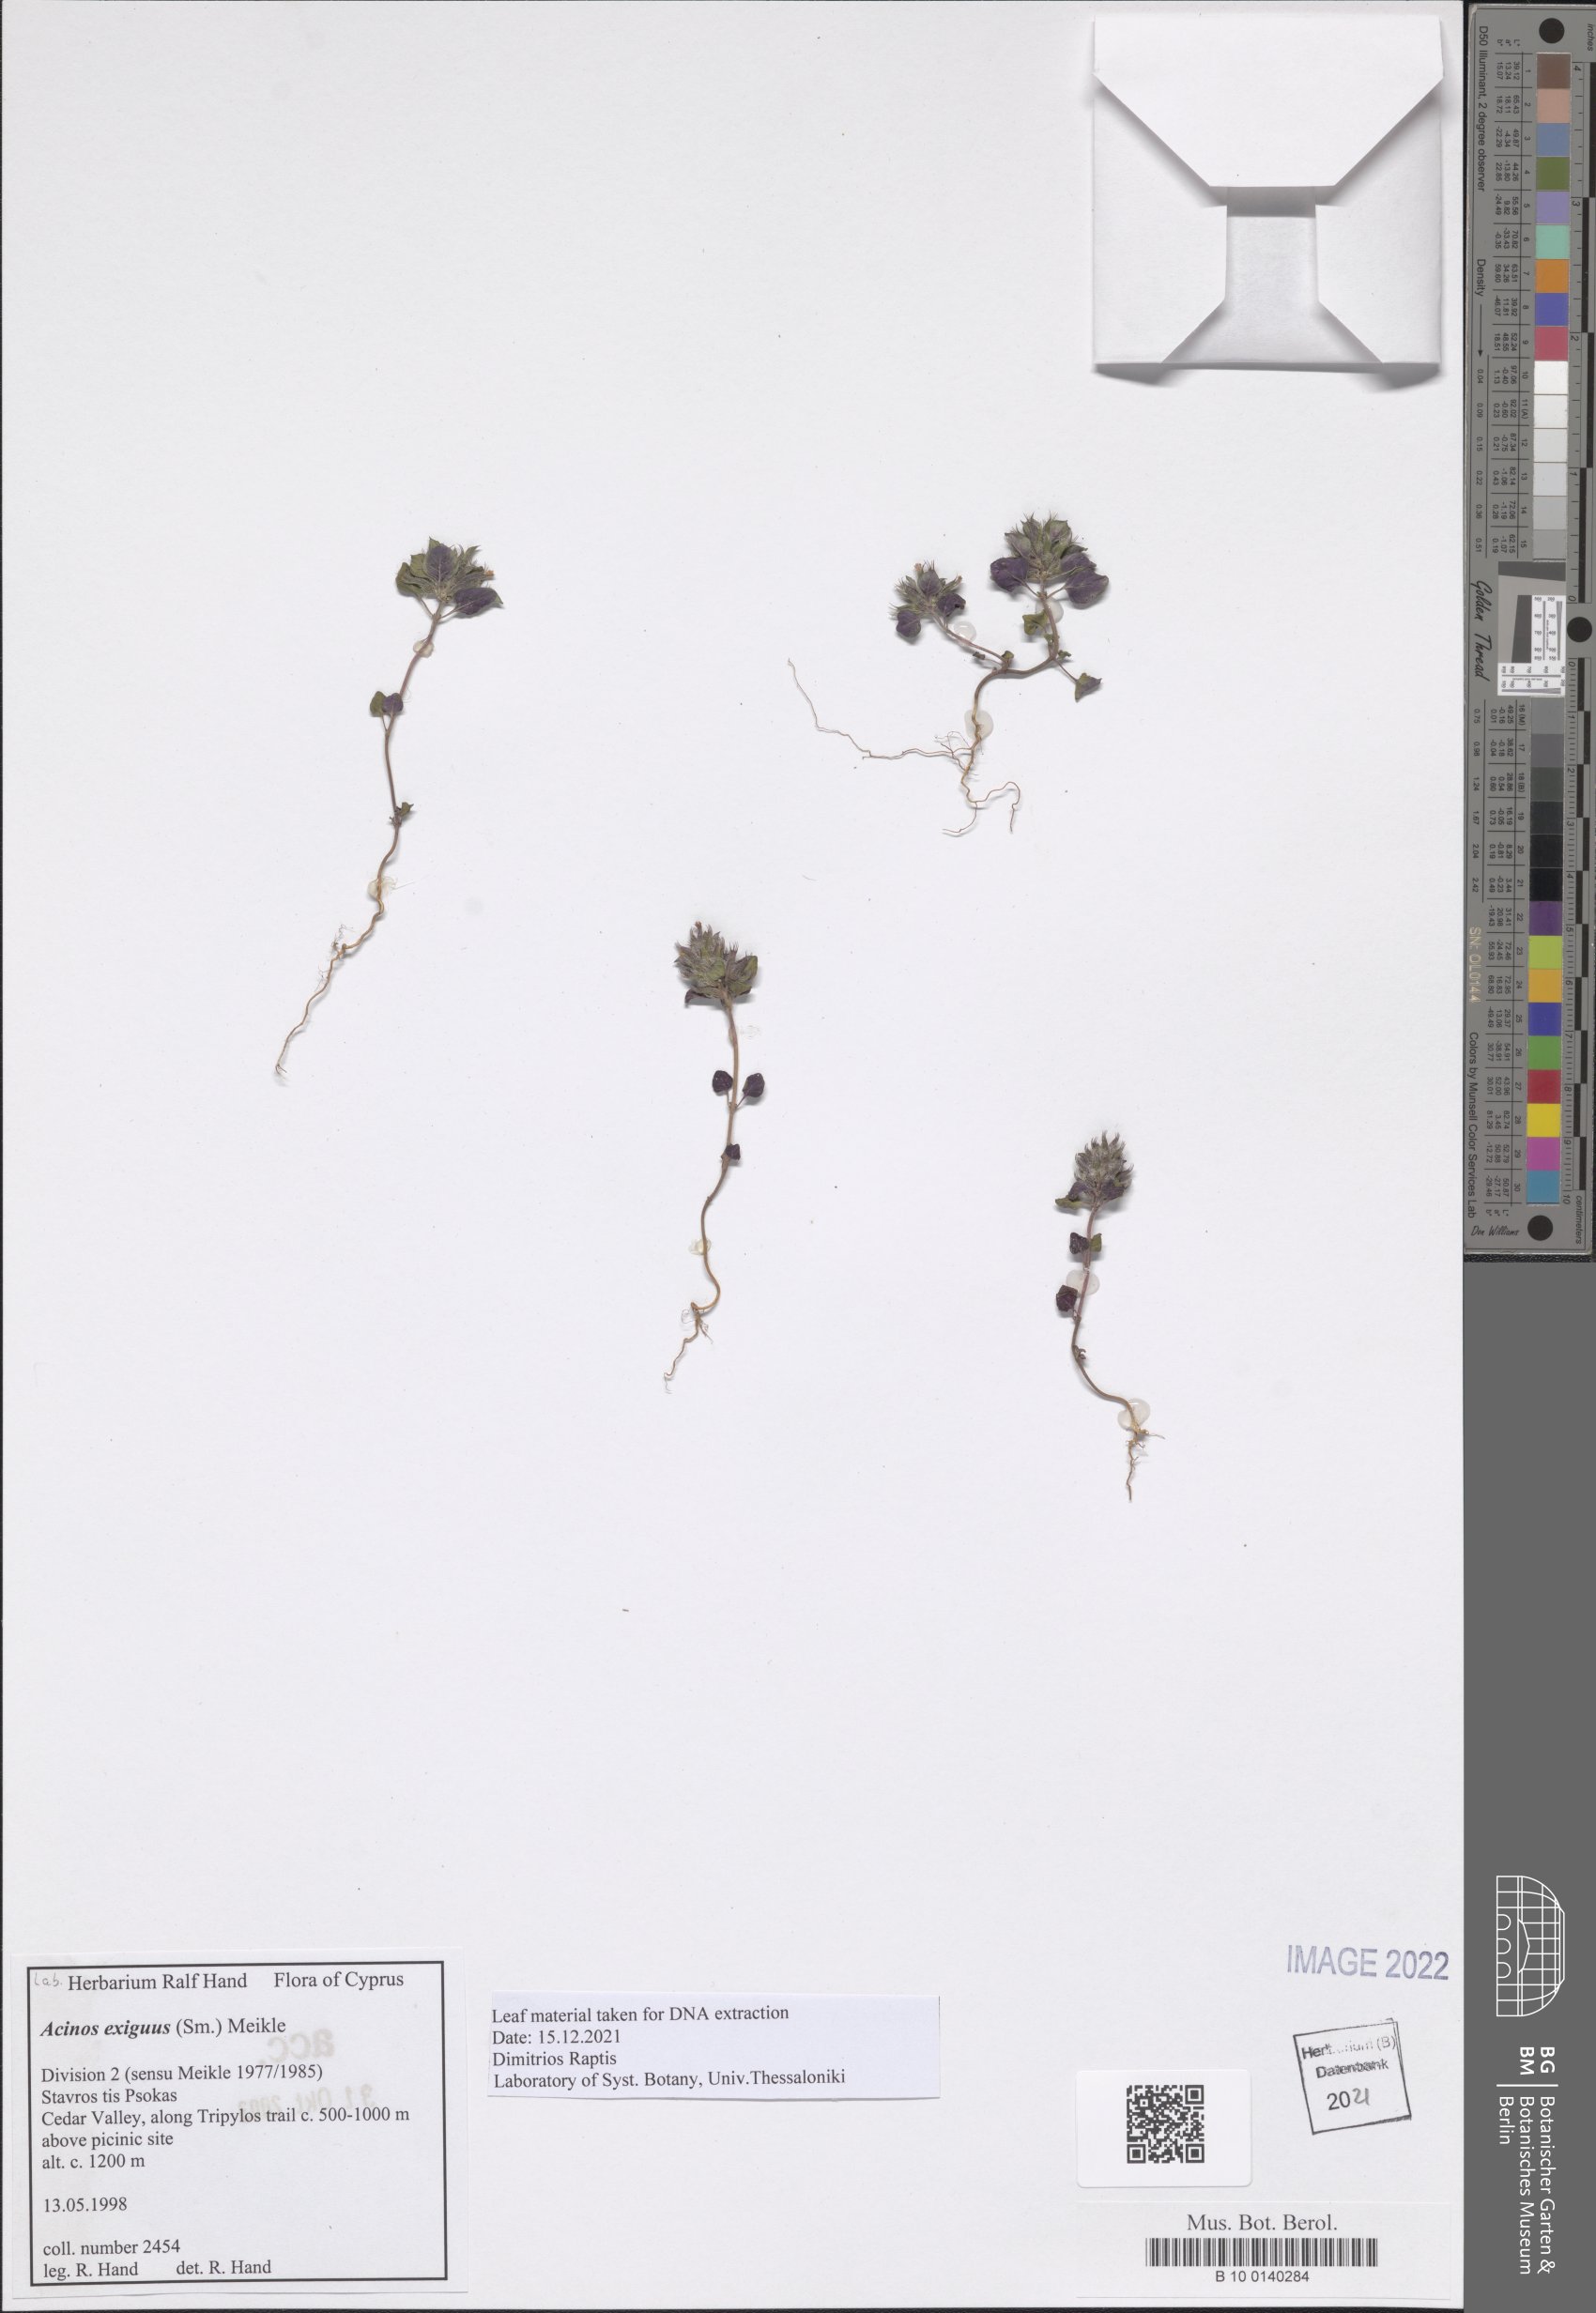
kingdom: Plantae
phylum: Tracheophyta
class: Magnoliopsida
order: Lamiales
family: Lamiaceae
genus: Clinopodium
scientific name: Clinopodium graveolens
